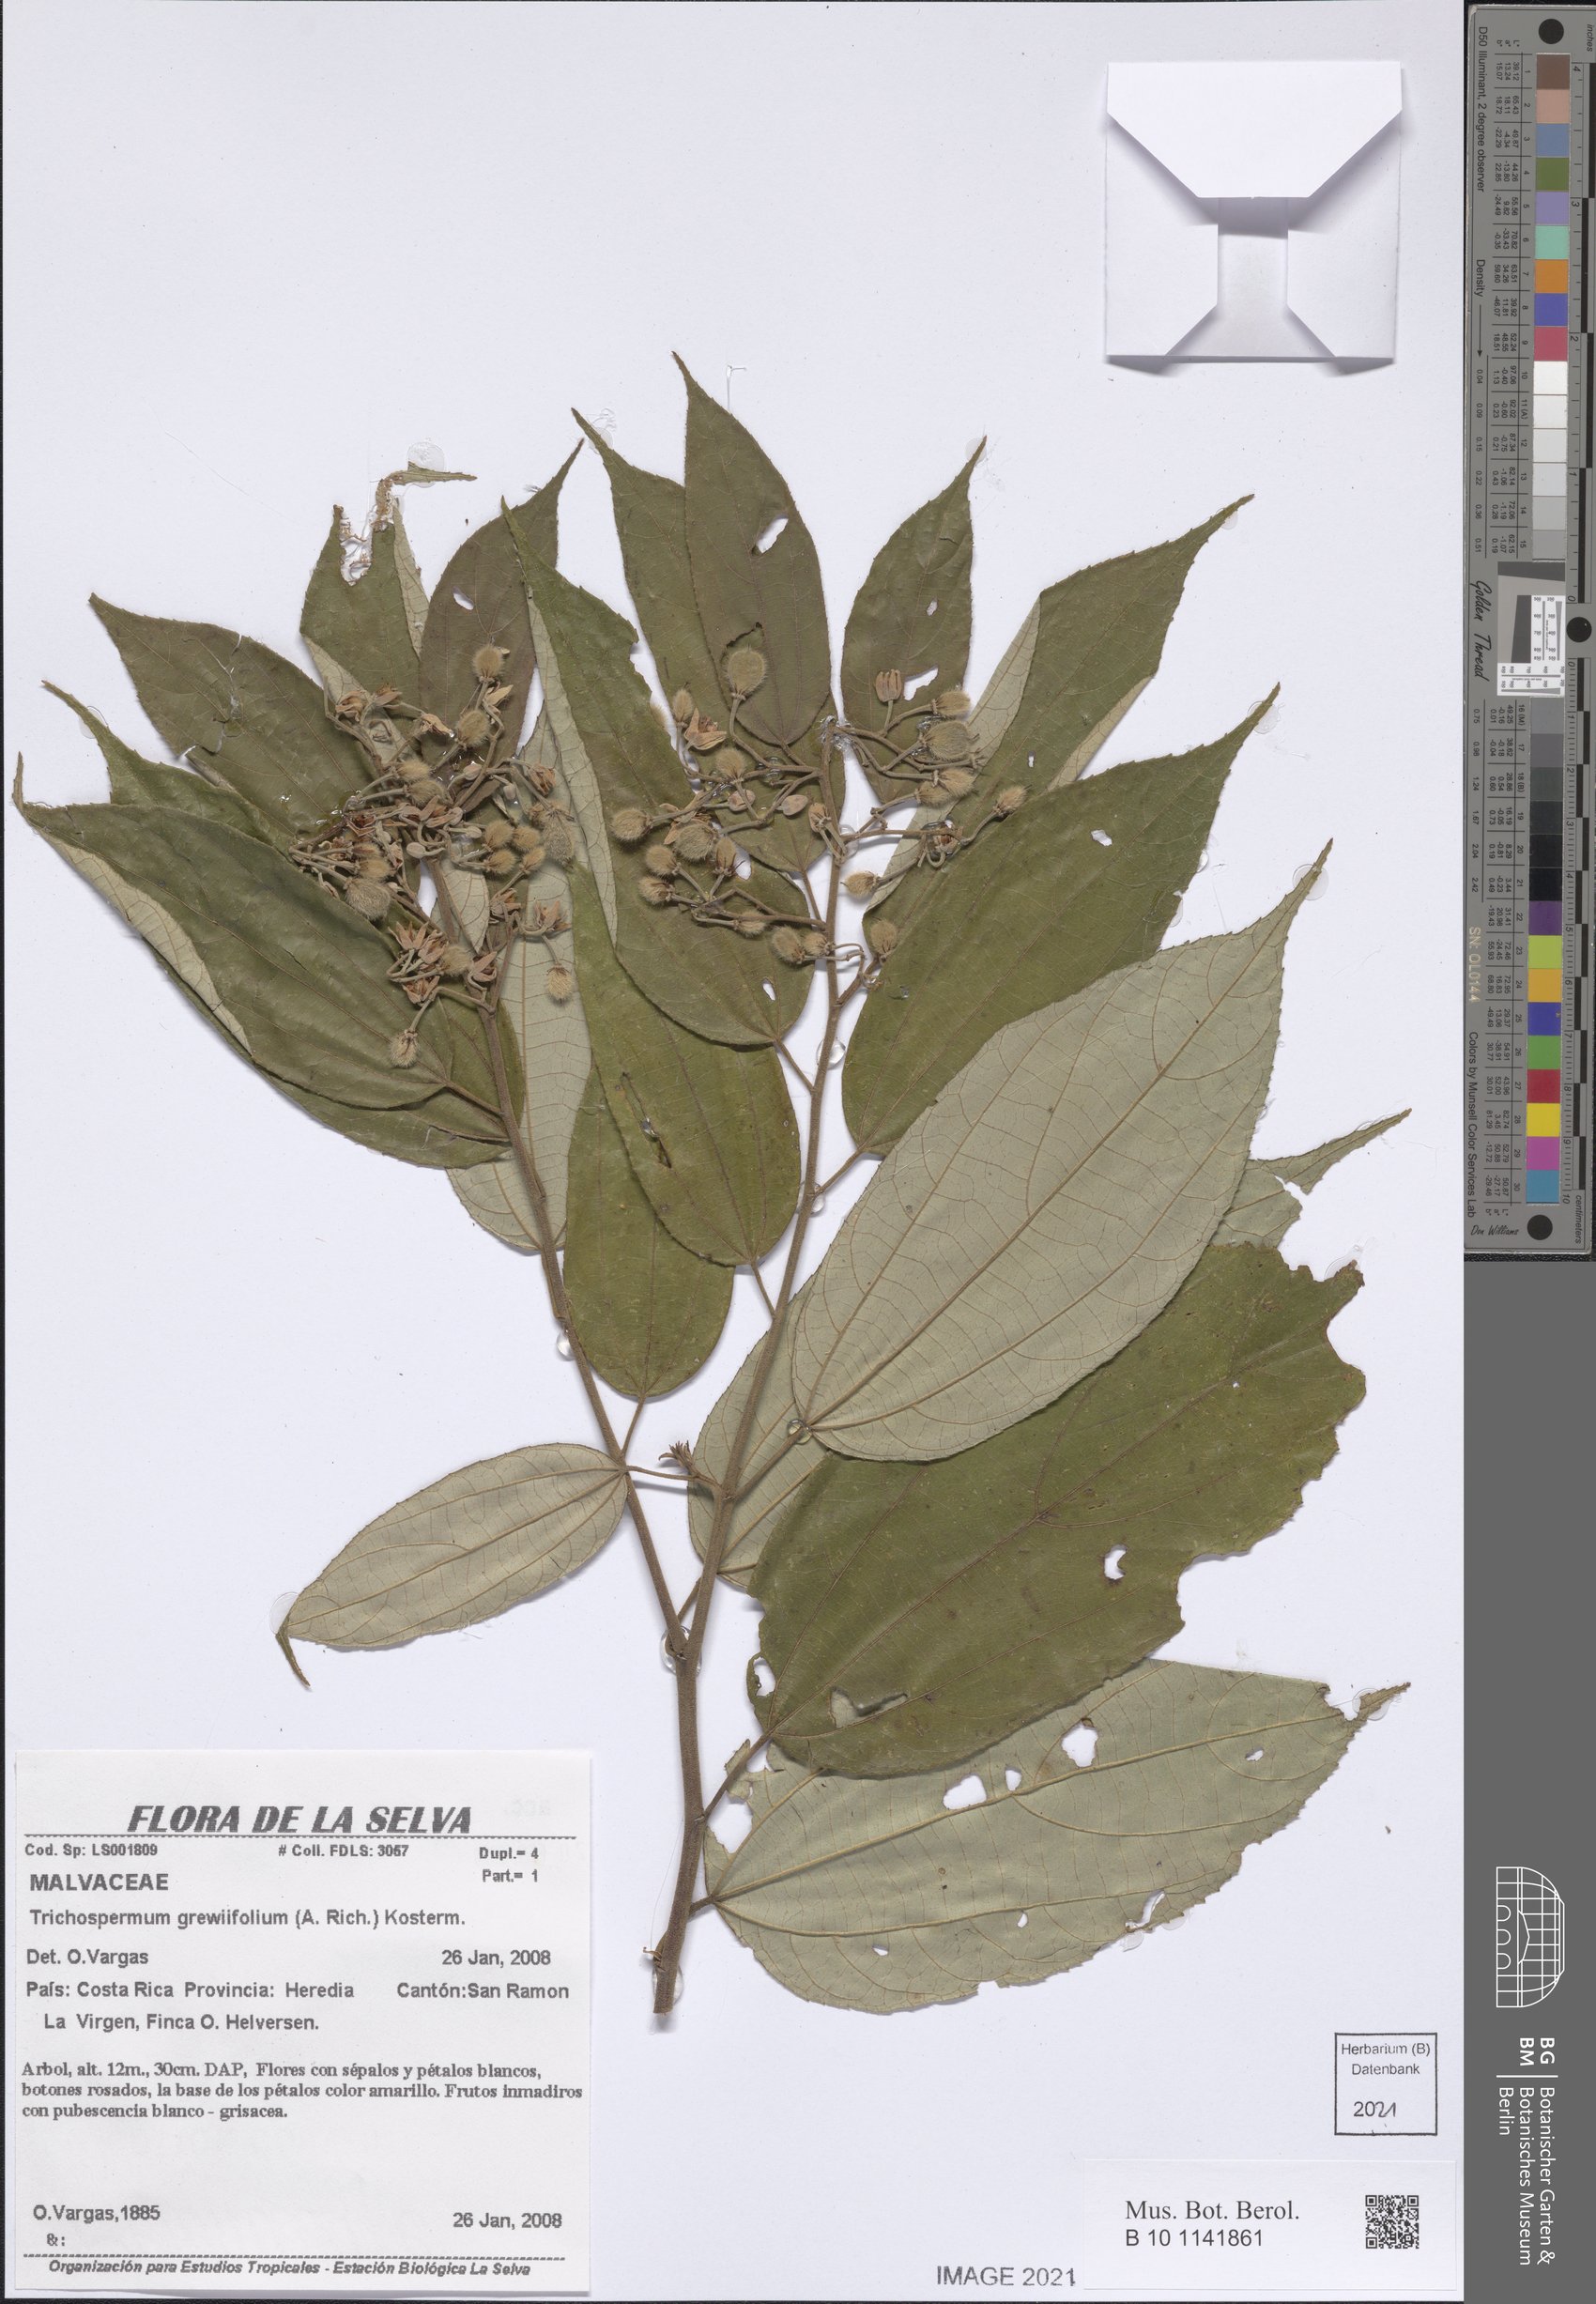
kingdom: Plantae
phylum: Tracheophyta
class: Magnoliopsida
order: Malvales
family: Malvaceae
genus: Trichospermum
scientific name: Trichospermum lessertianum
